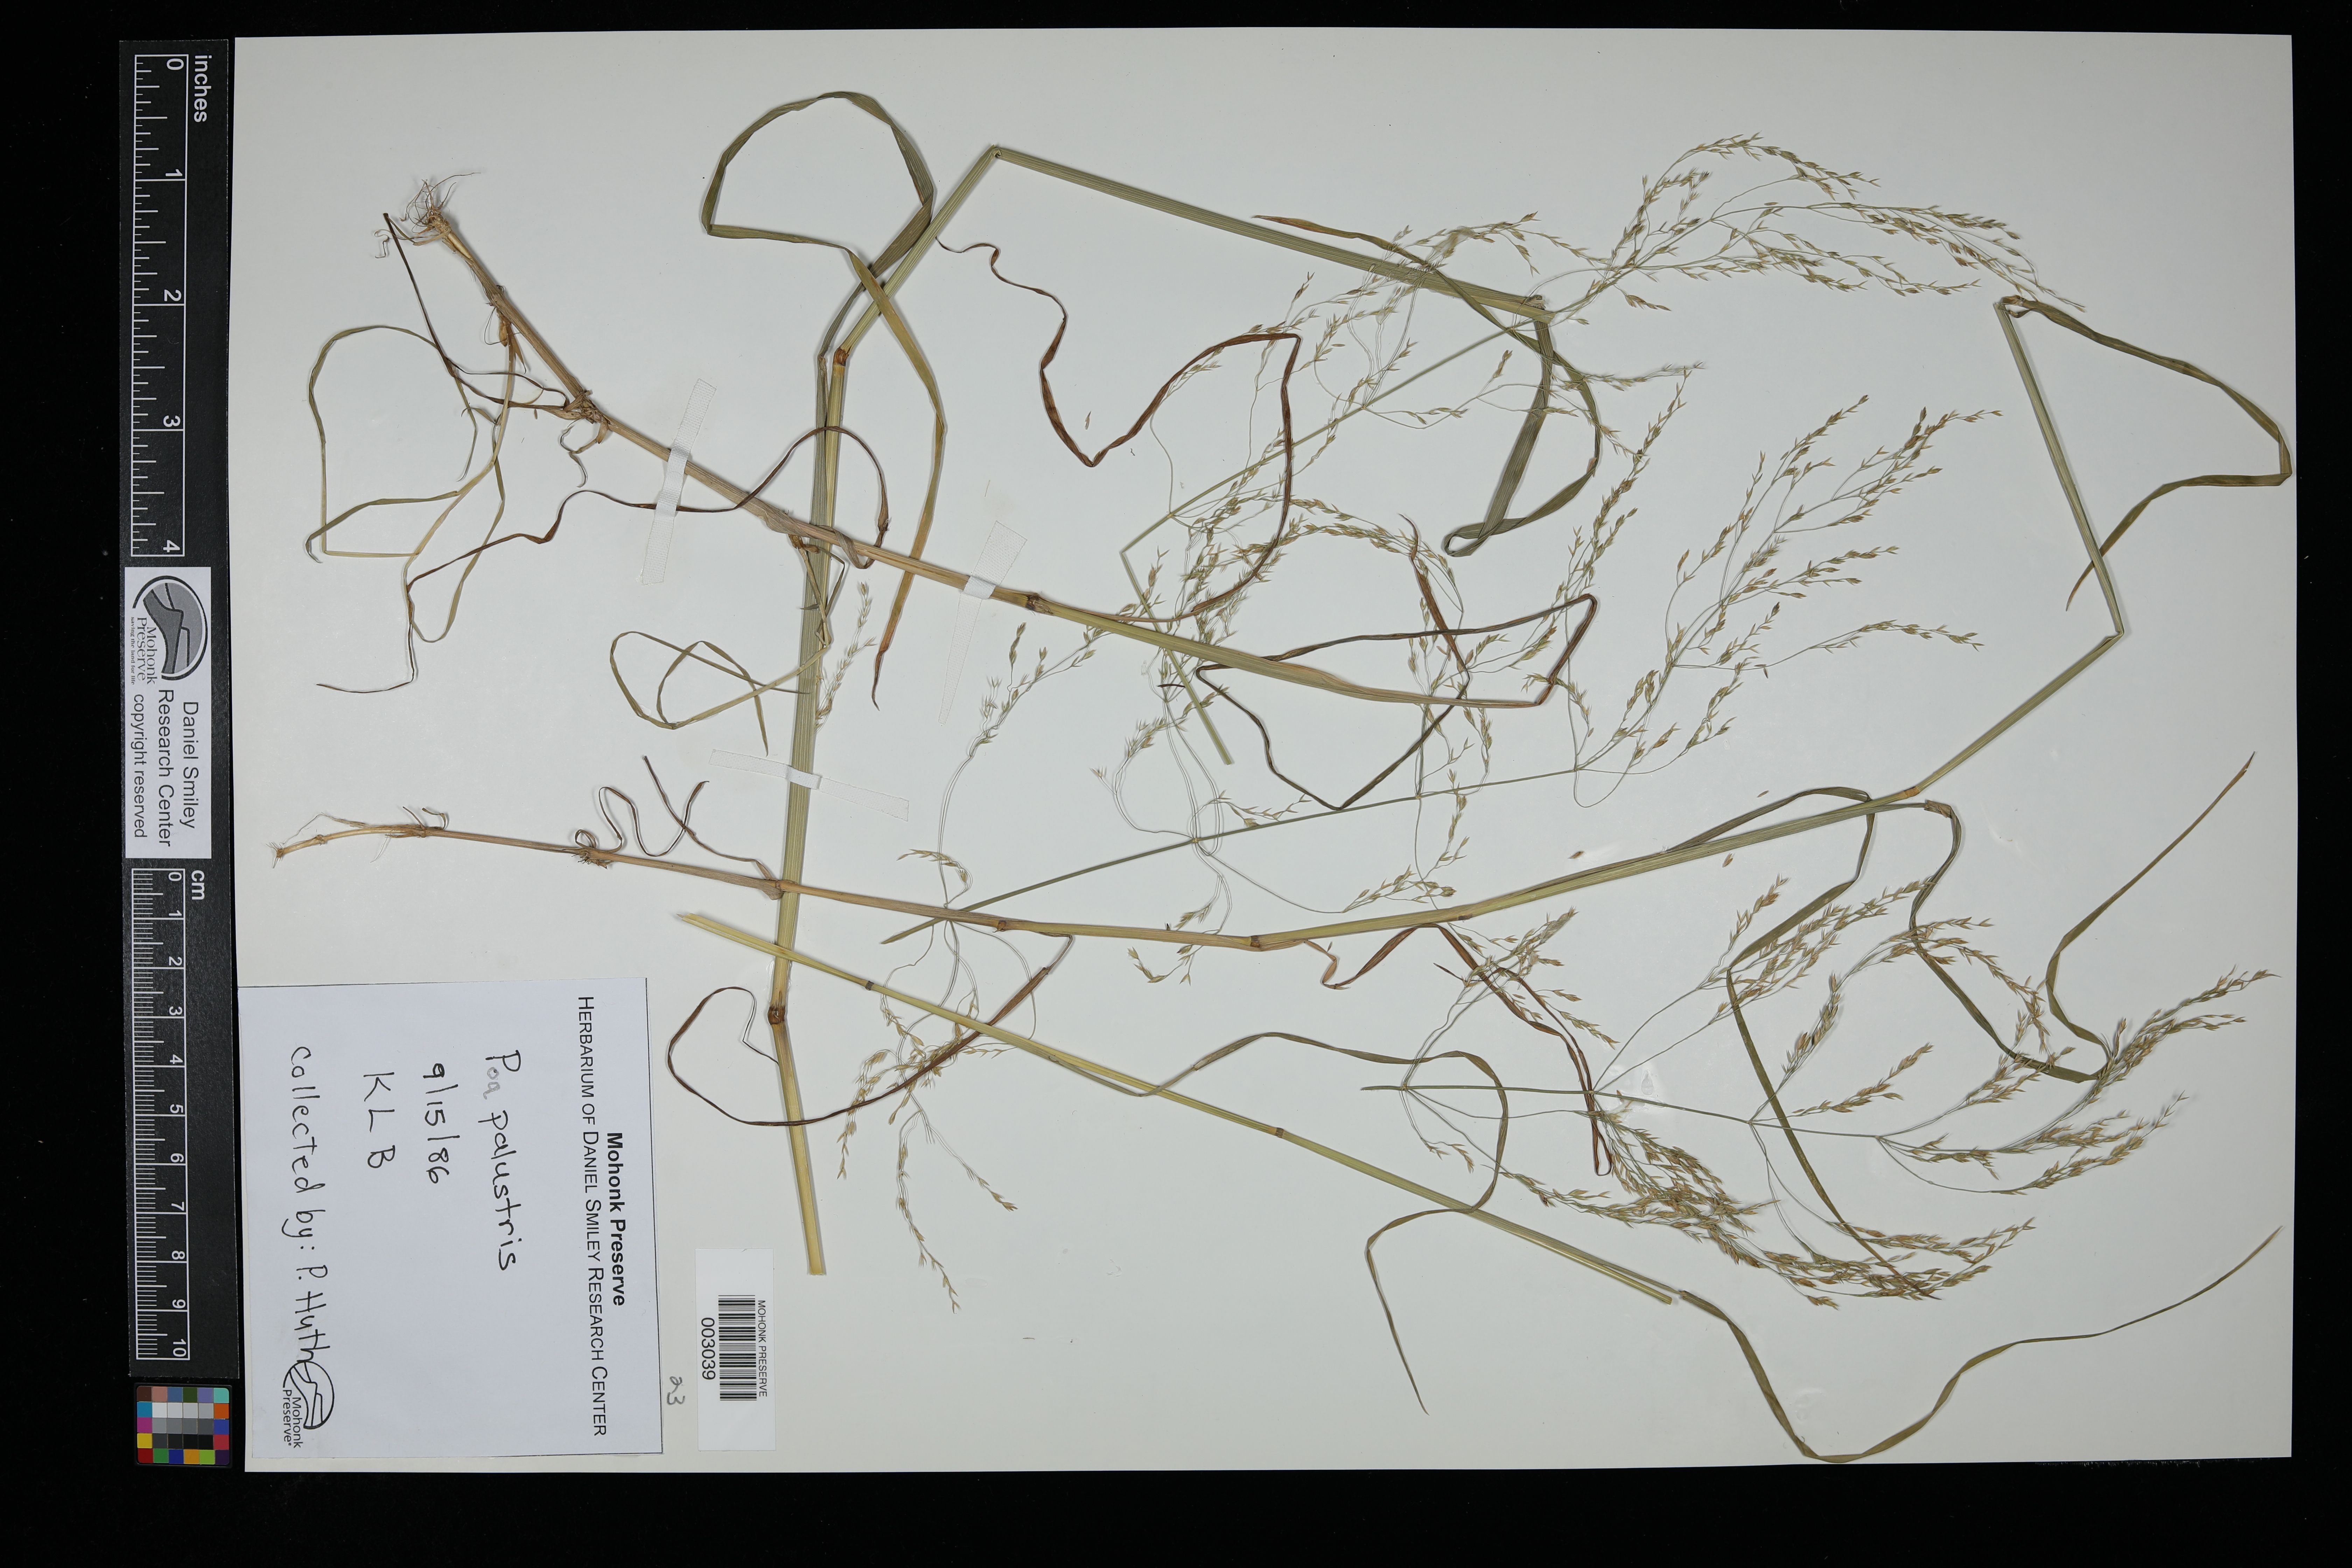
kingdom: Plantae
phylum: Tracheophyta
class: Liliopsida
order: Poales
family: Poaceae
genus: Poa
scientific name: Poa palustris
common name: Swamp meadow-grass
